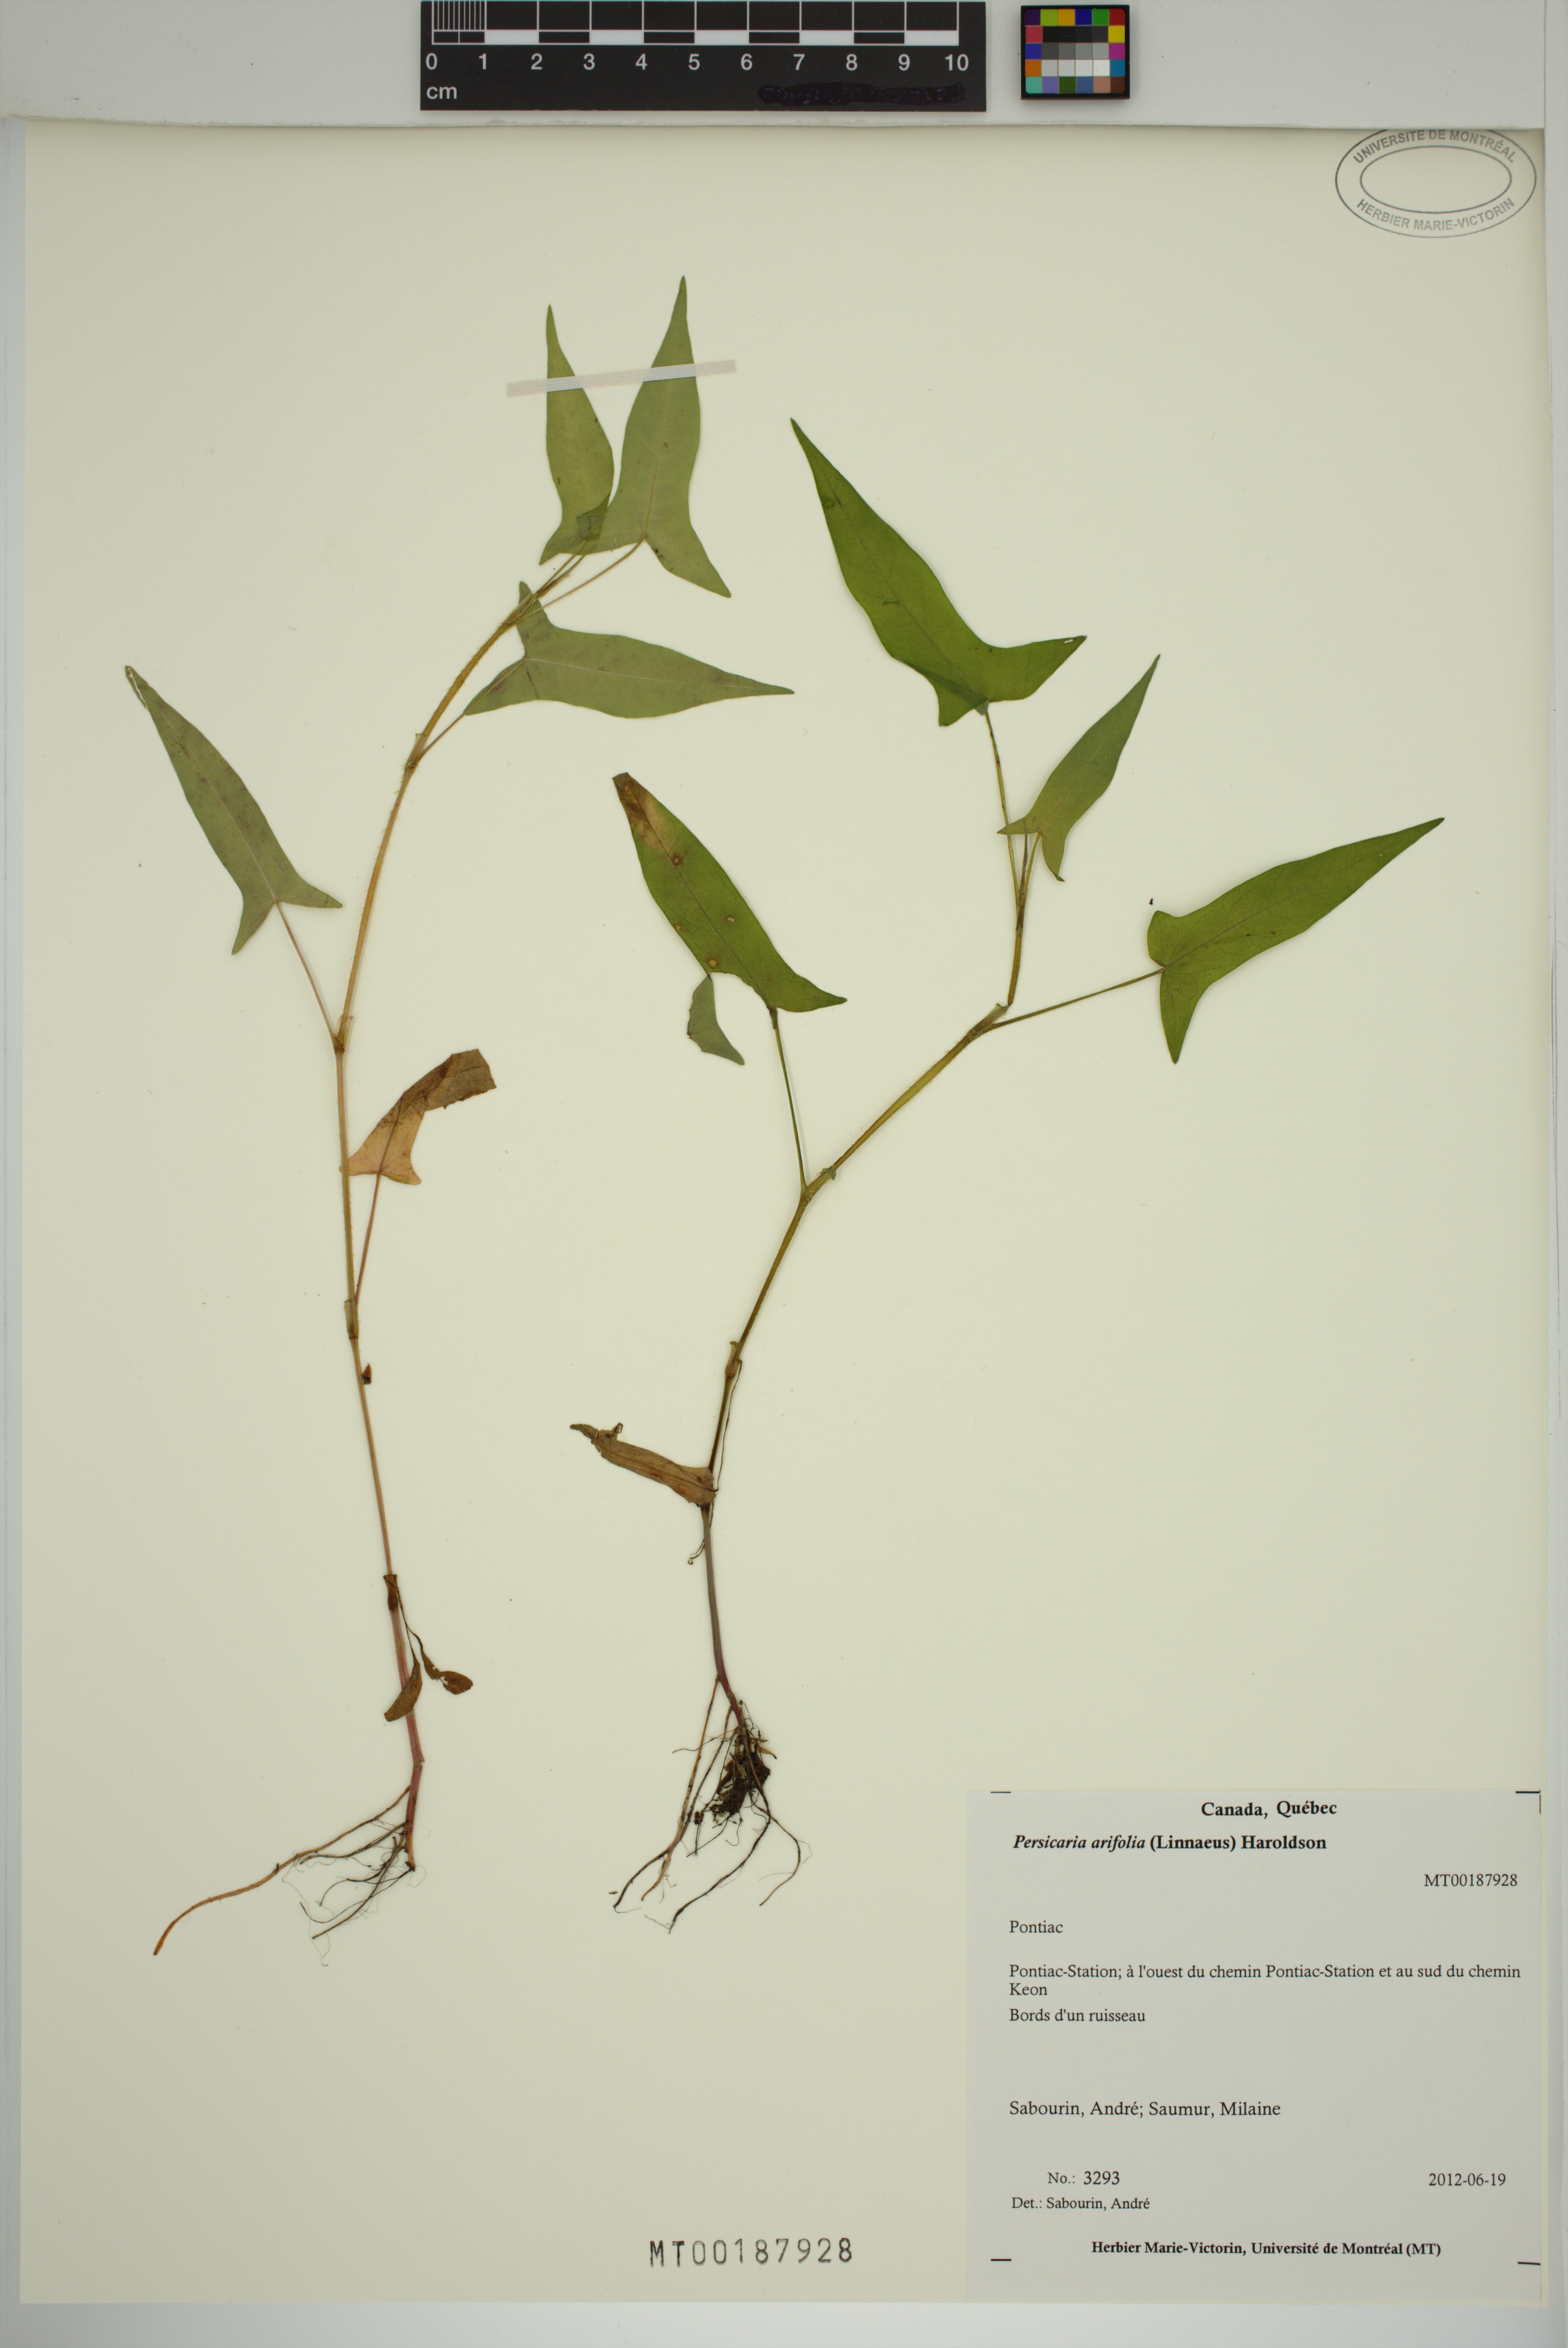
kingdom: Plantae
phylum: Tracheophyta
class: Magnoliopsida
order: Caryophyllales
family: Polygonaceae
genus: Persicaria
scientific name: Persicaria arifolia
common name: Halberd-leaved tear-thumb
